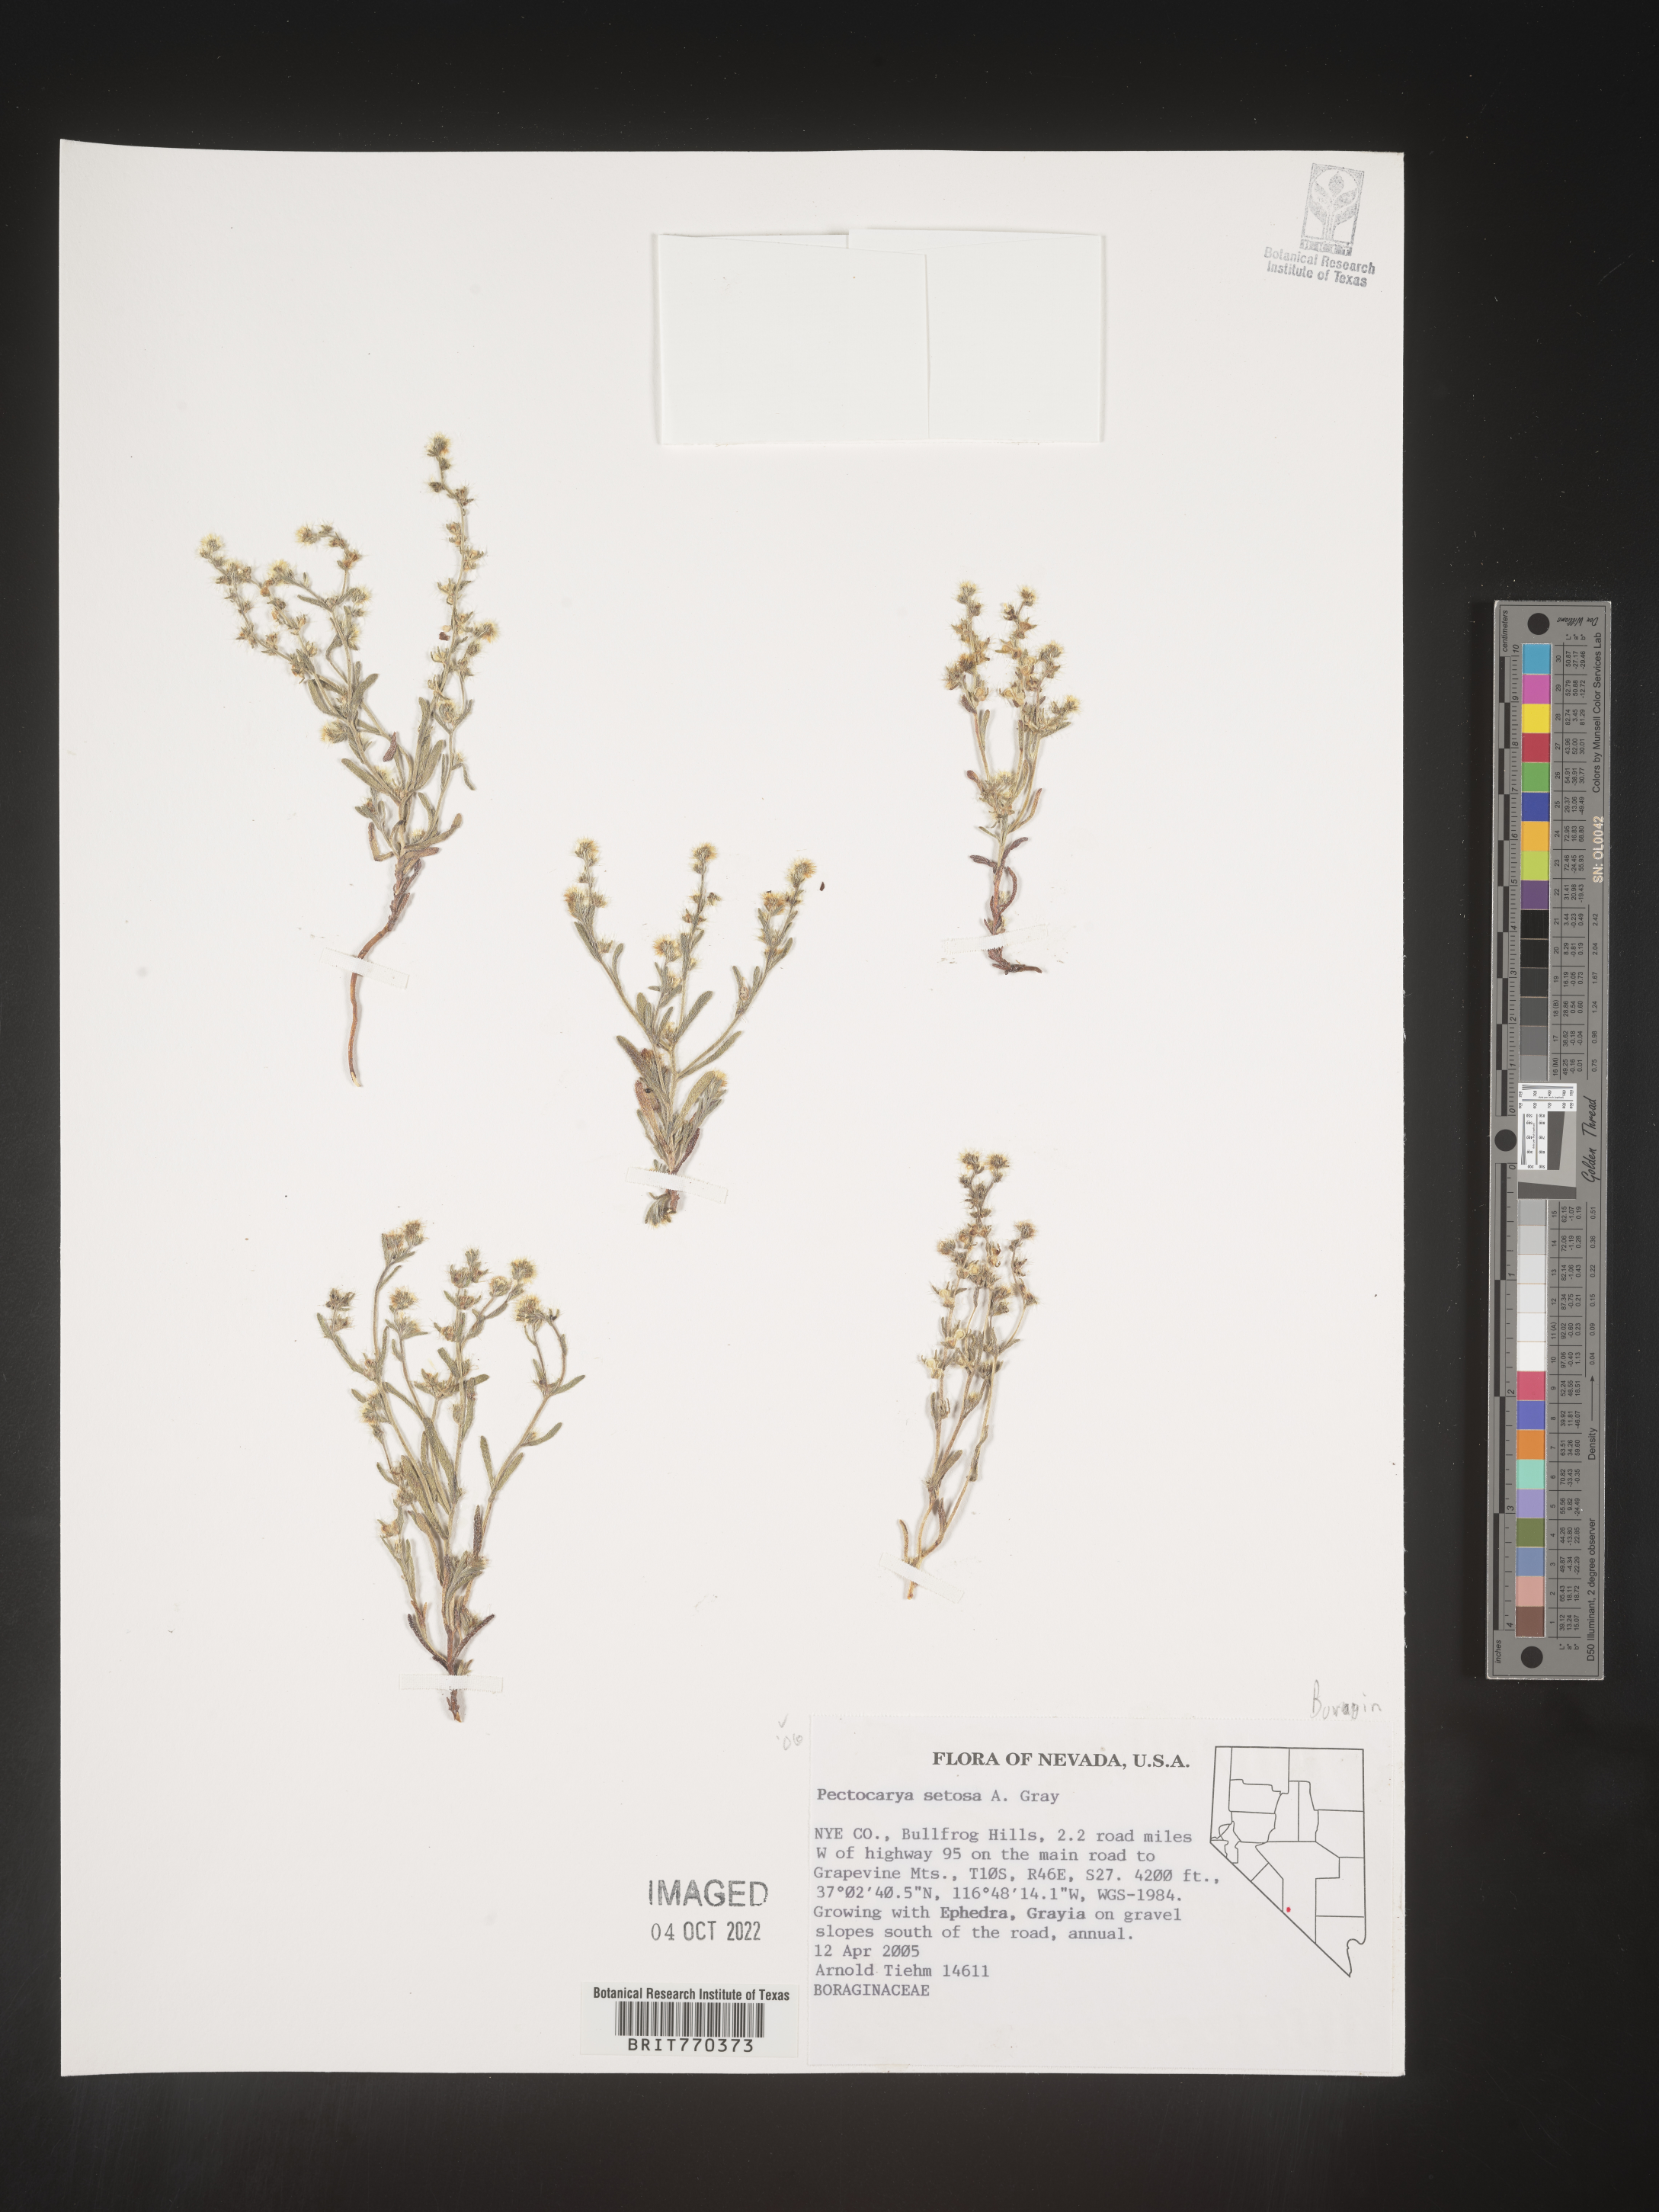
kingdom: Plantae
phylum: Tracheophyta
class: Magnoliopsida
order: Boraginales
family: Boraginaceae
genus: Pectocarya
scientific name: Pectocarya
